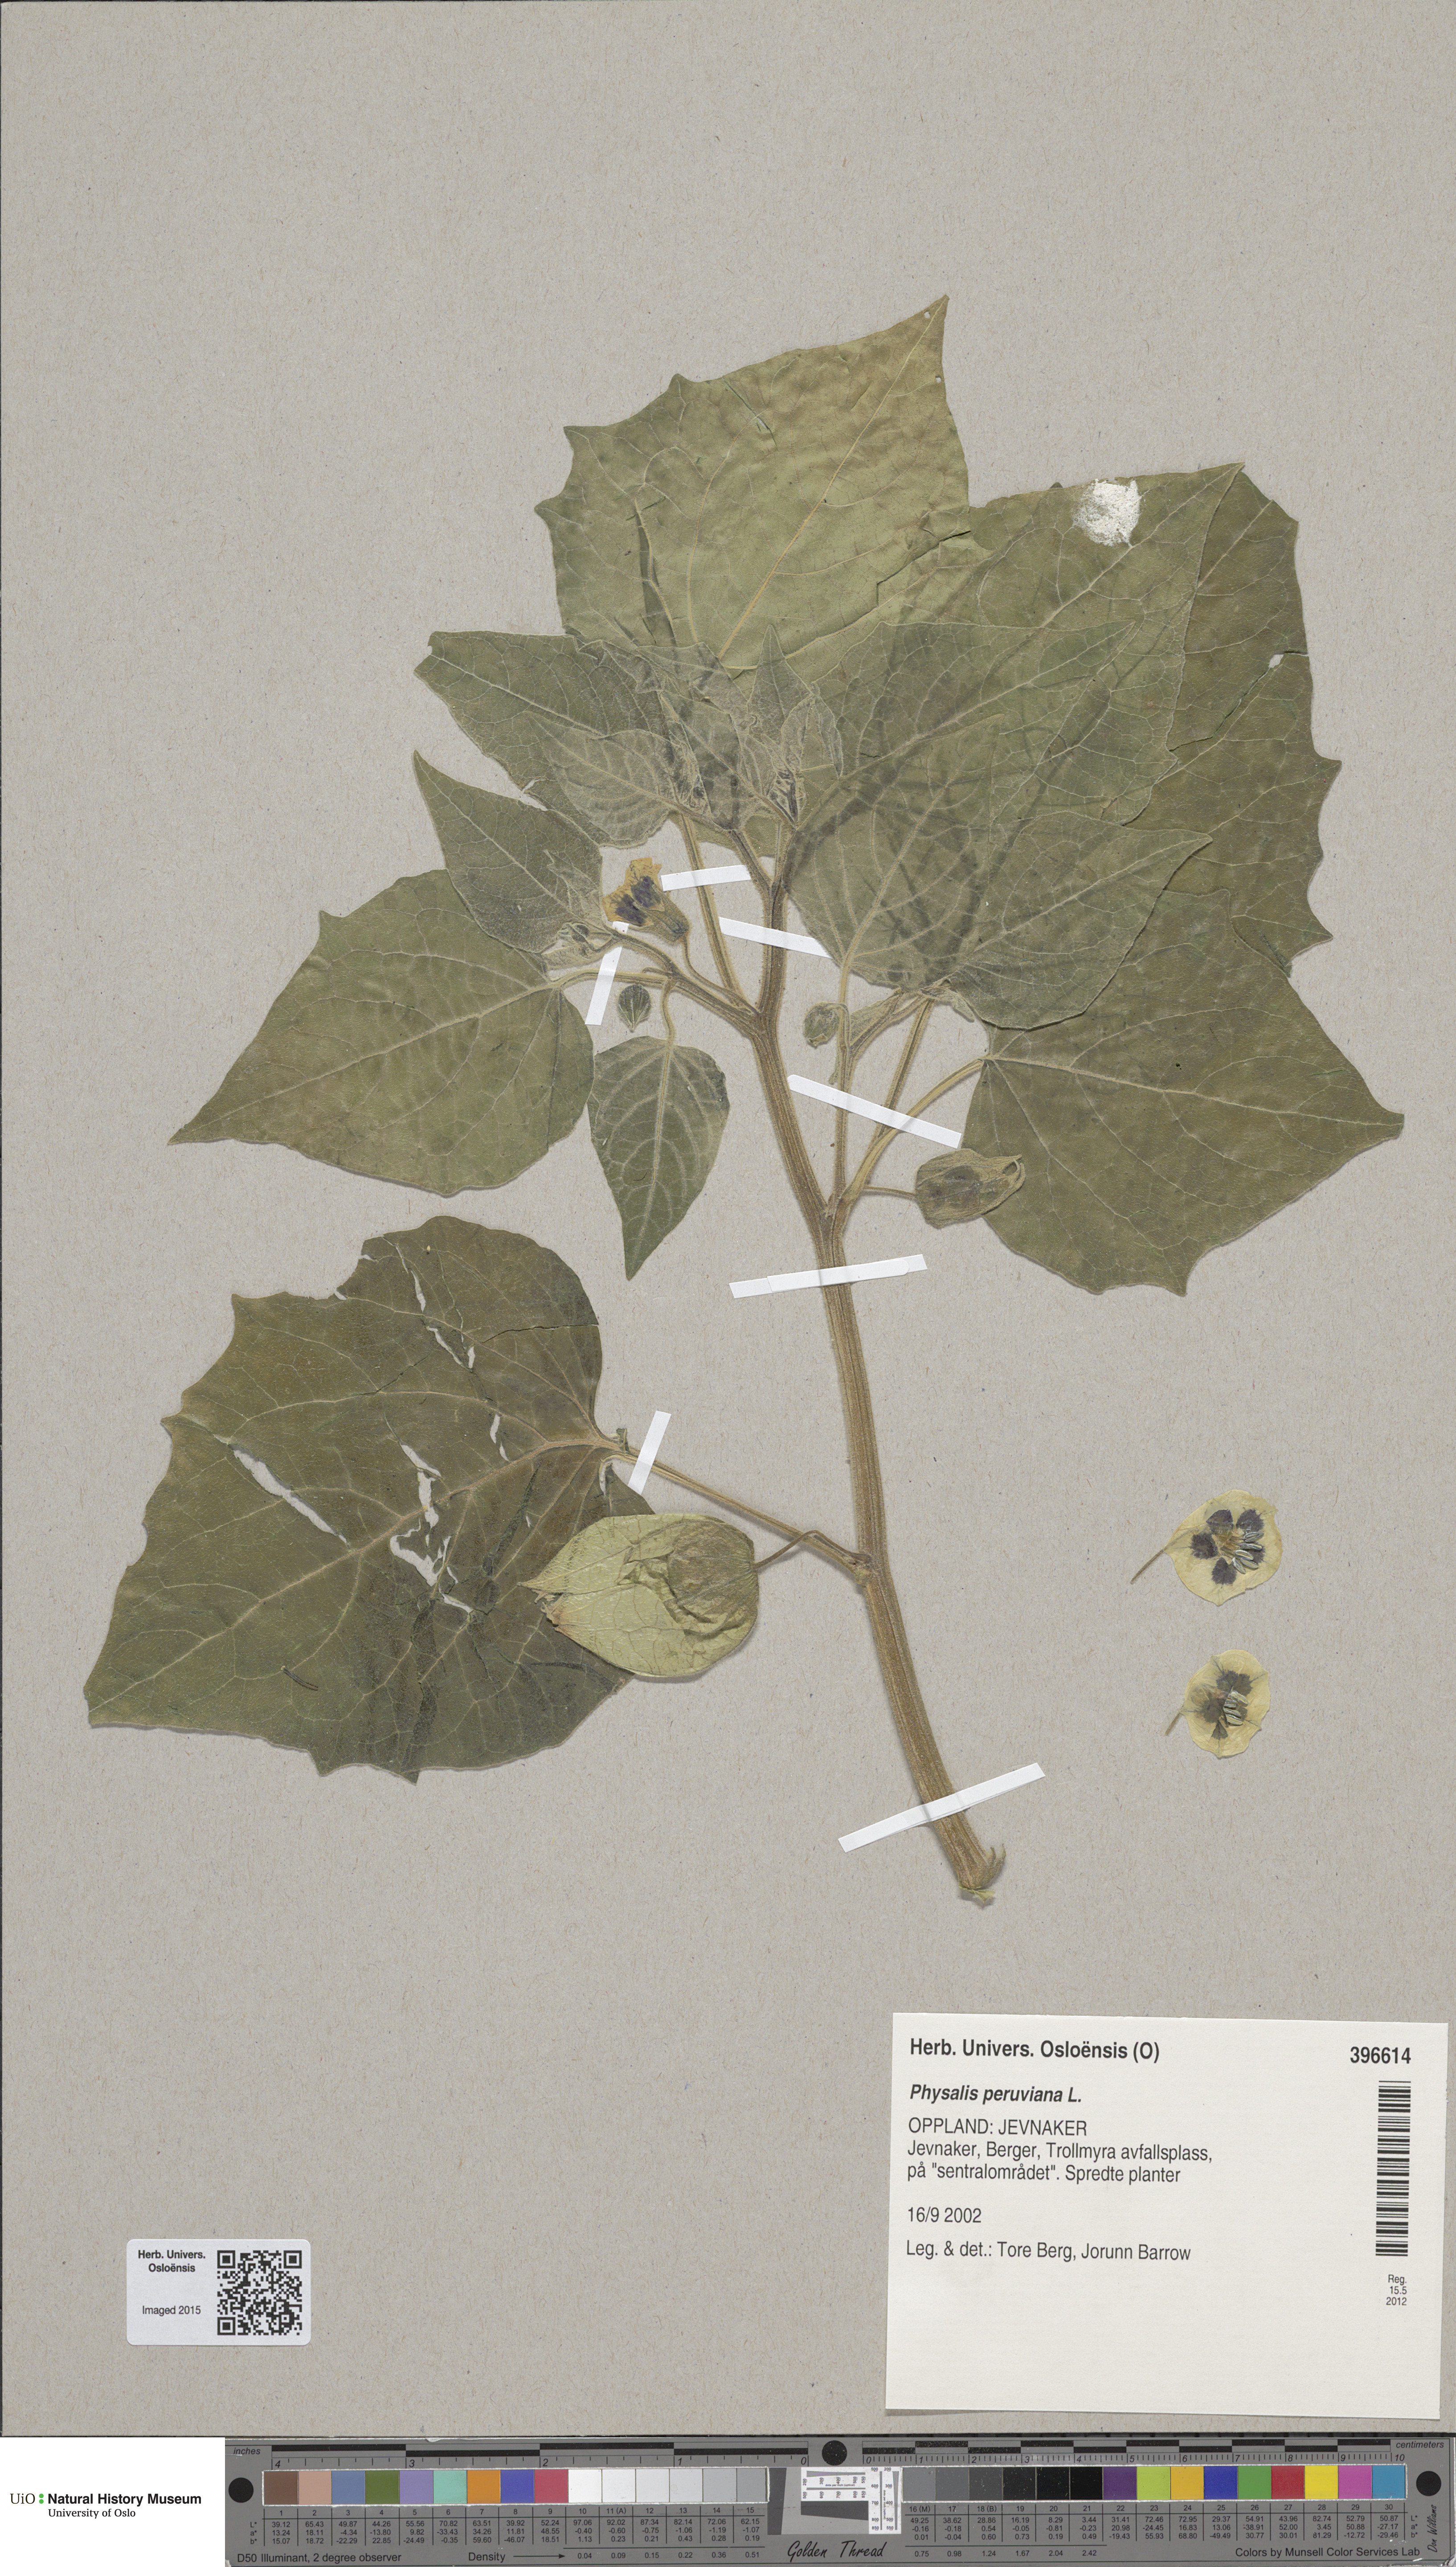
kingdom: Plantae
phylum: Tracheophyta
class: Magnoliopsida
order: Solanales
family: Solanaceae
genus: Physalis
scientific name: Physalis peruviana
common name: Cape-gooseberry
